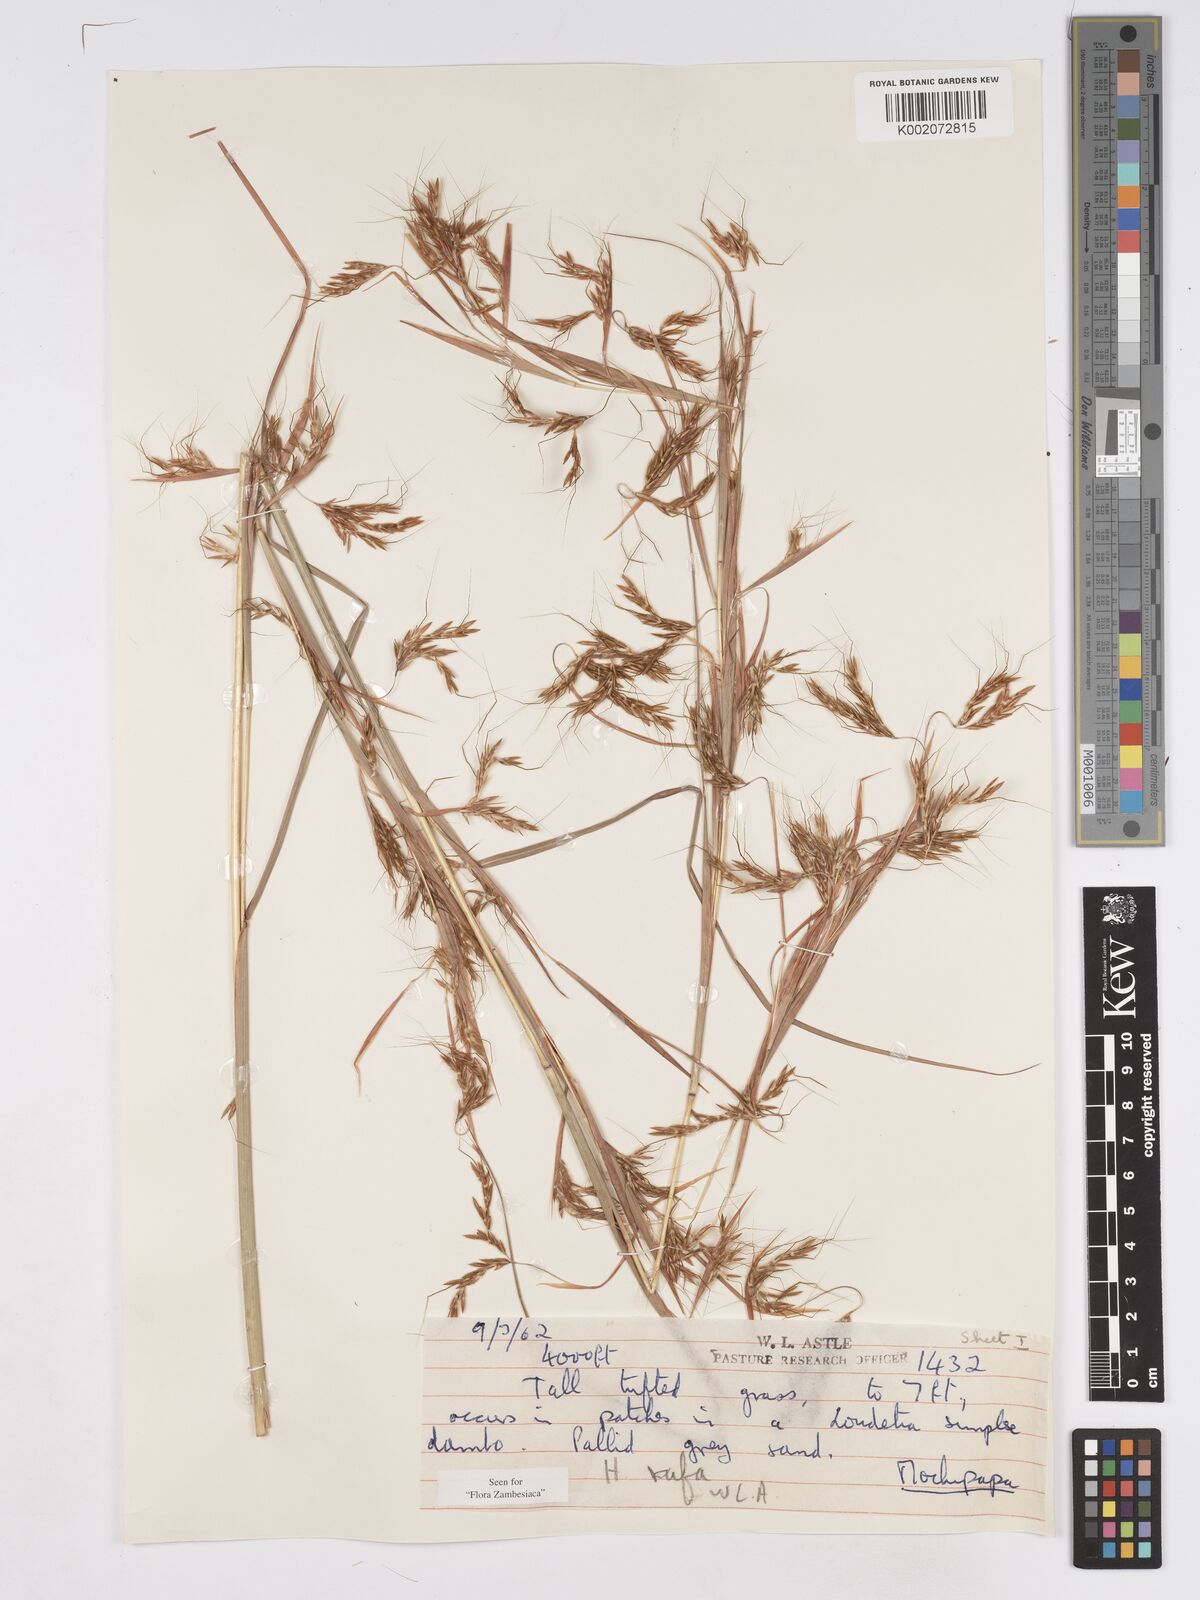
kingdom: Plantae
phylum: Tracheophyta
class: Liliopsida
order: Poales
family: Poaceae
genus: Hyparrhenia
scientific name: Hyparrhenia rufa
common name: Jaraguagrass
